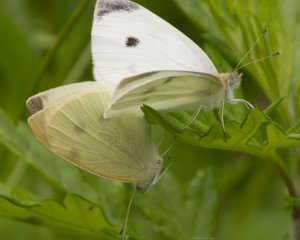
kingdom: Animalia
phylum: Arthropoda
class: Insecta
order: Lepidoptera
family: Pieridae
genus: Pieris
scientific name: Pieris rapae
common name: Cabbage White
